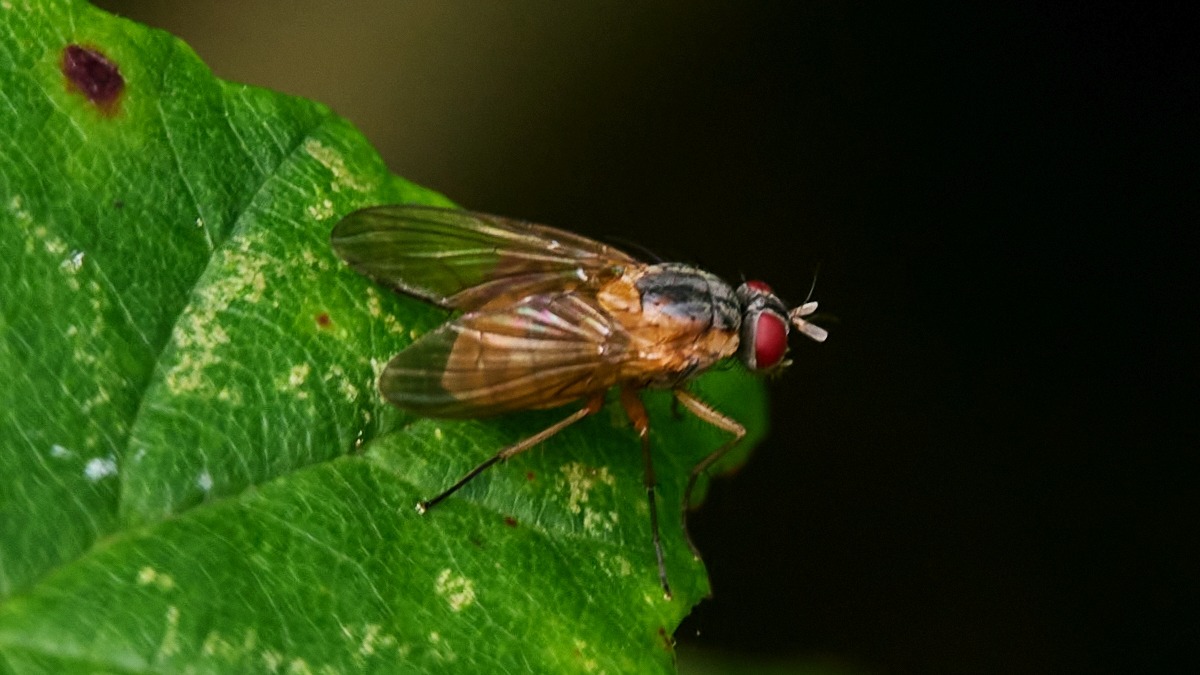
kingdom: Animalia
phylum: Arthropoda
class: Insecta
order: Diptera
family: Muscidae
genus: Phaonia
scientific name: Phaonia rufiventris
